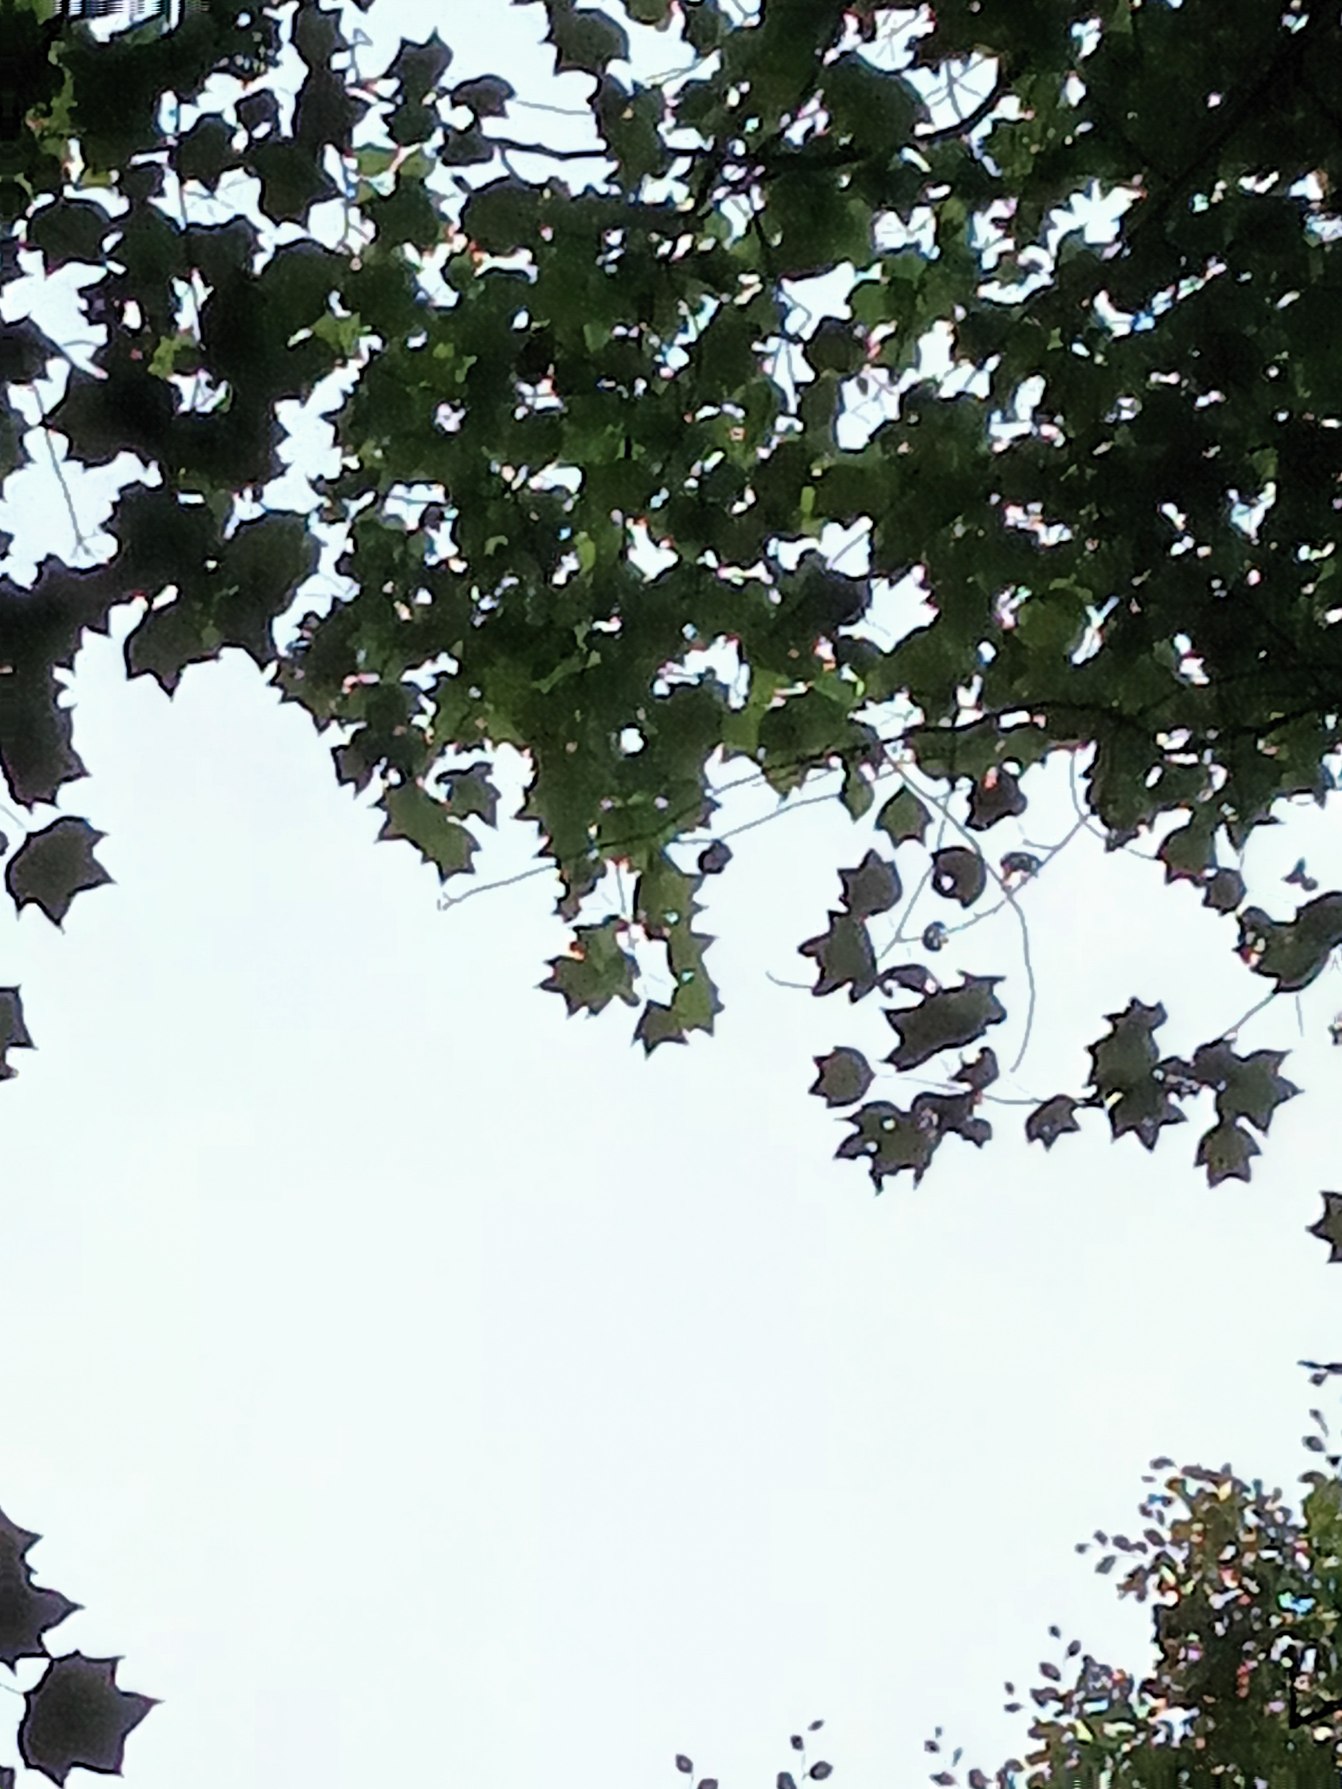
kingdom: Plantae
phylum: Tracheophyta
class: Magnoliopsida
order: Magnoliales
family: Magnoliaceae
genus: Liriodendron
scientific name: Liriodendron tulipifera
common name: Tulipantræ
